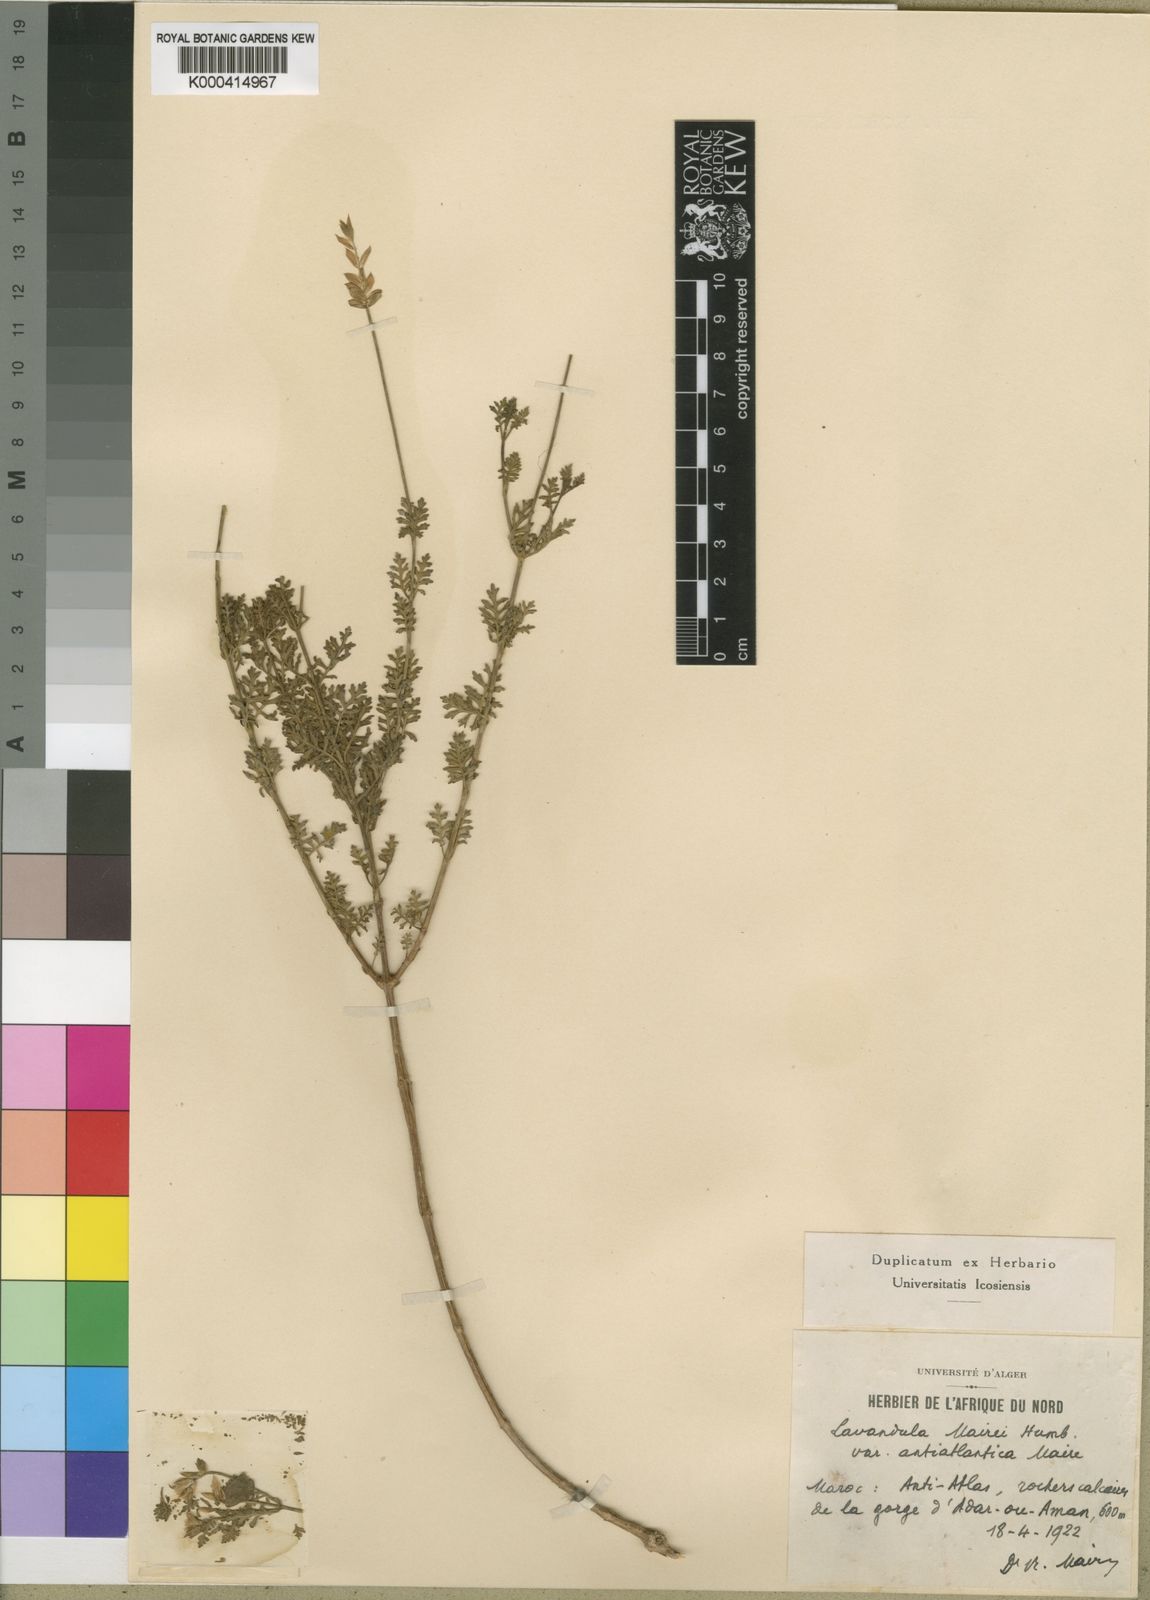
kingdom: Plantae
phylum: Tracheophyta
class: Magnoliopsida
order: Lamiales
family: Lamiaceae
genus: Lavandula
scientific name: Lavandula mairei
